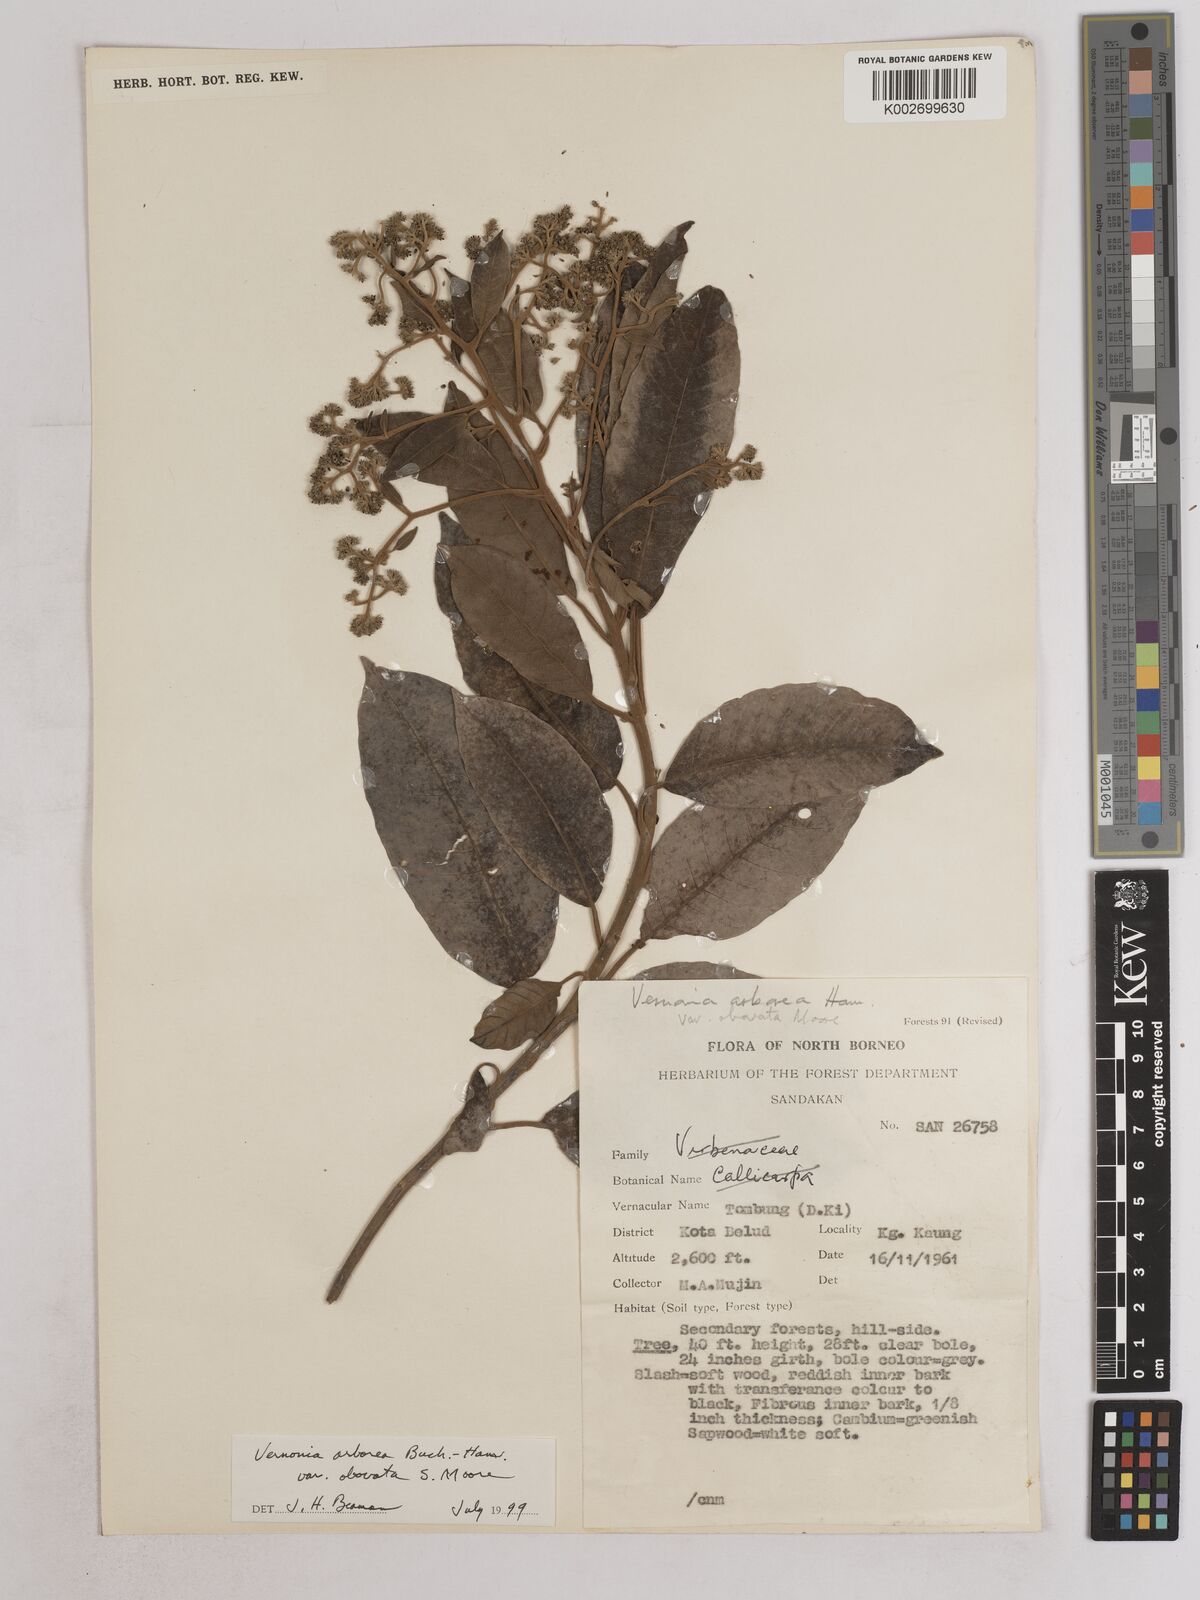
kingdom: Plantae
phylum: Tracheophyta
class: Magnoliopsida
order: Asterales
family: Asteraceae
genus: Strobocalyx
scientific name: Strobocalyx arborea
